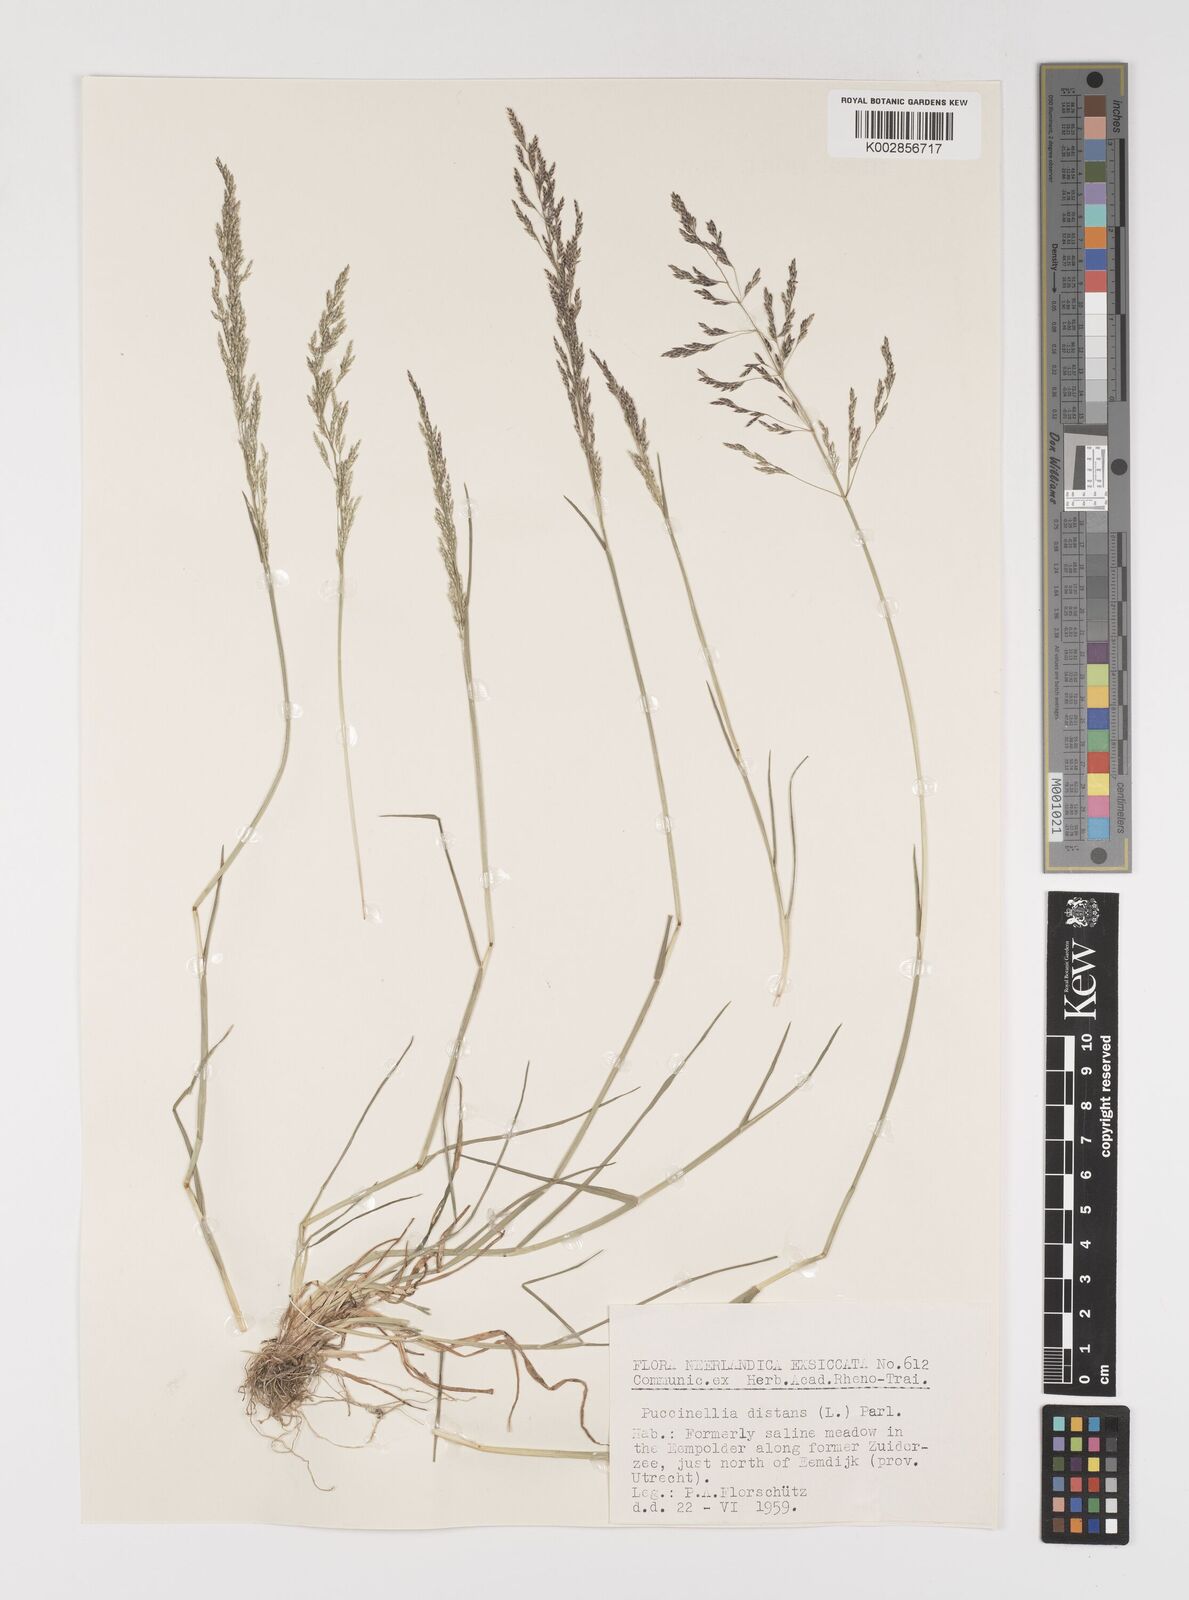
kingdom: Plantae
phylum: Tracheophyta
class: Liliopsida
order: Poales
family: Poaceae
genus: Puccinellia
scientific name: Puccinellia
